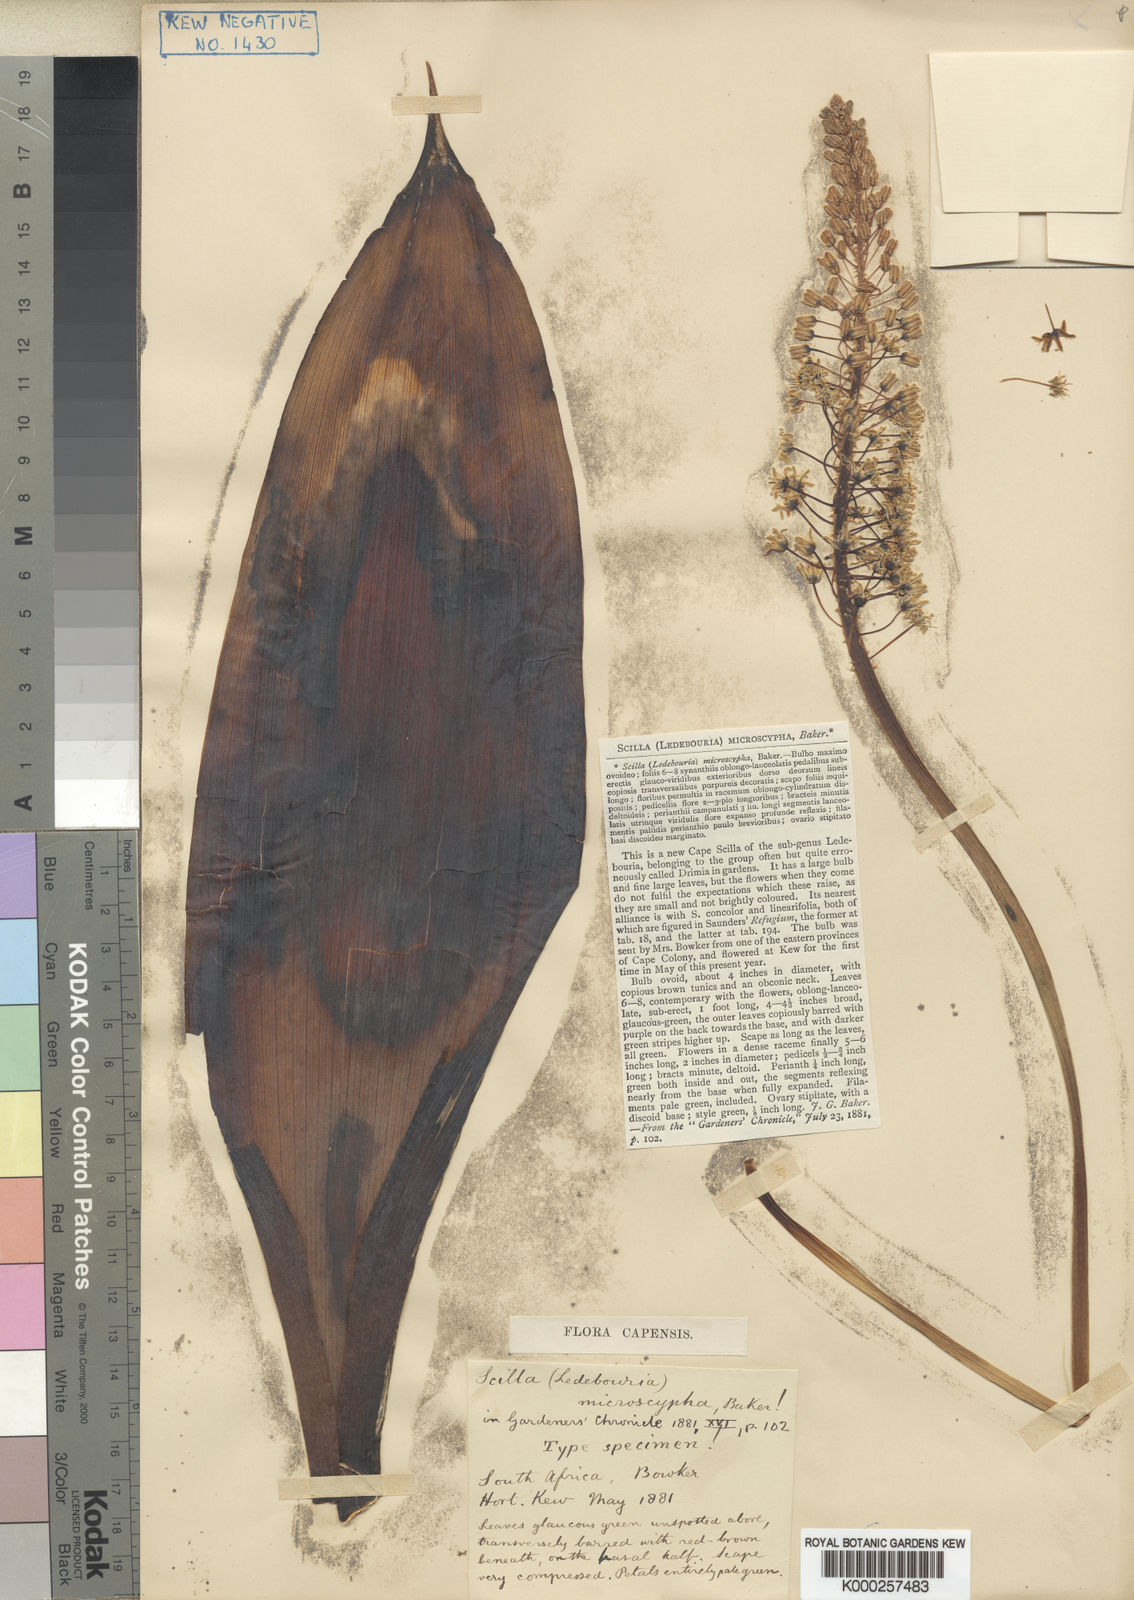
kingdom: Plantae
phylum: Tracheophyta
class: Liliopsida
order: Asparagales
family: Asparagaceae
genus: Ledebouria
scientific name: Ledebouria floribunda
